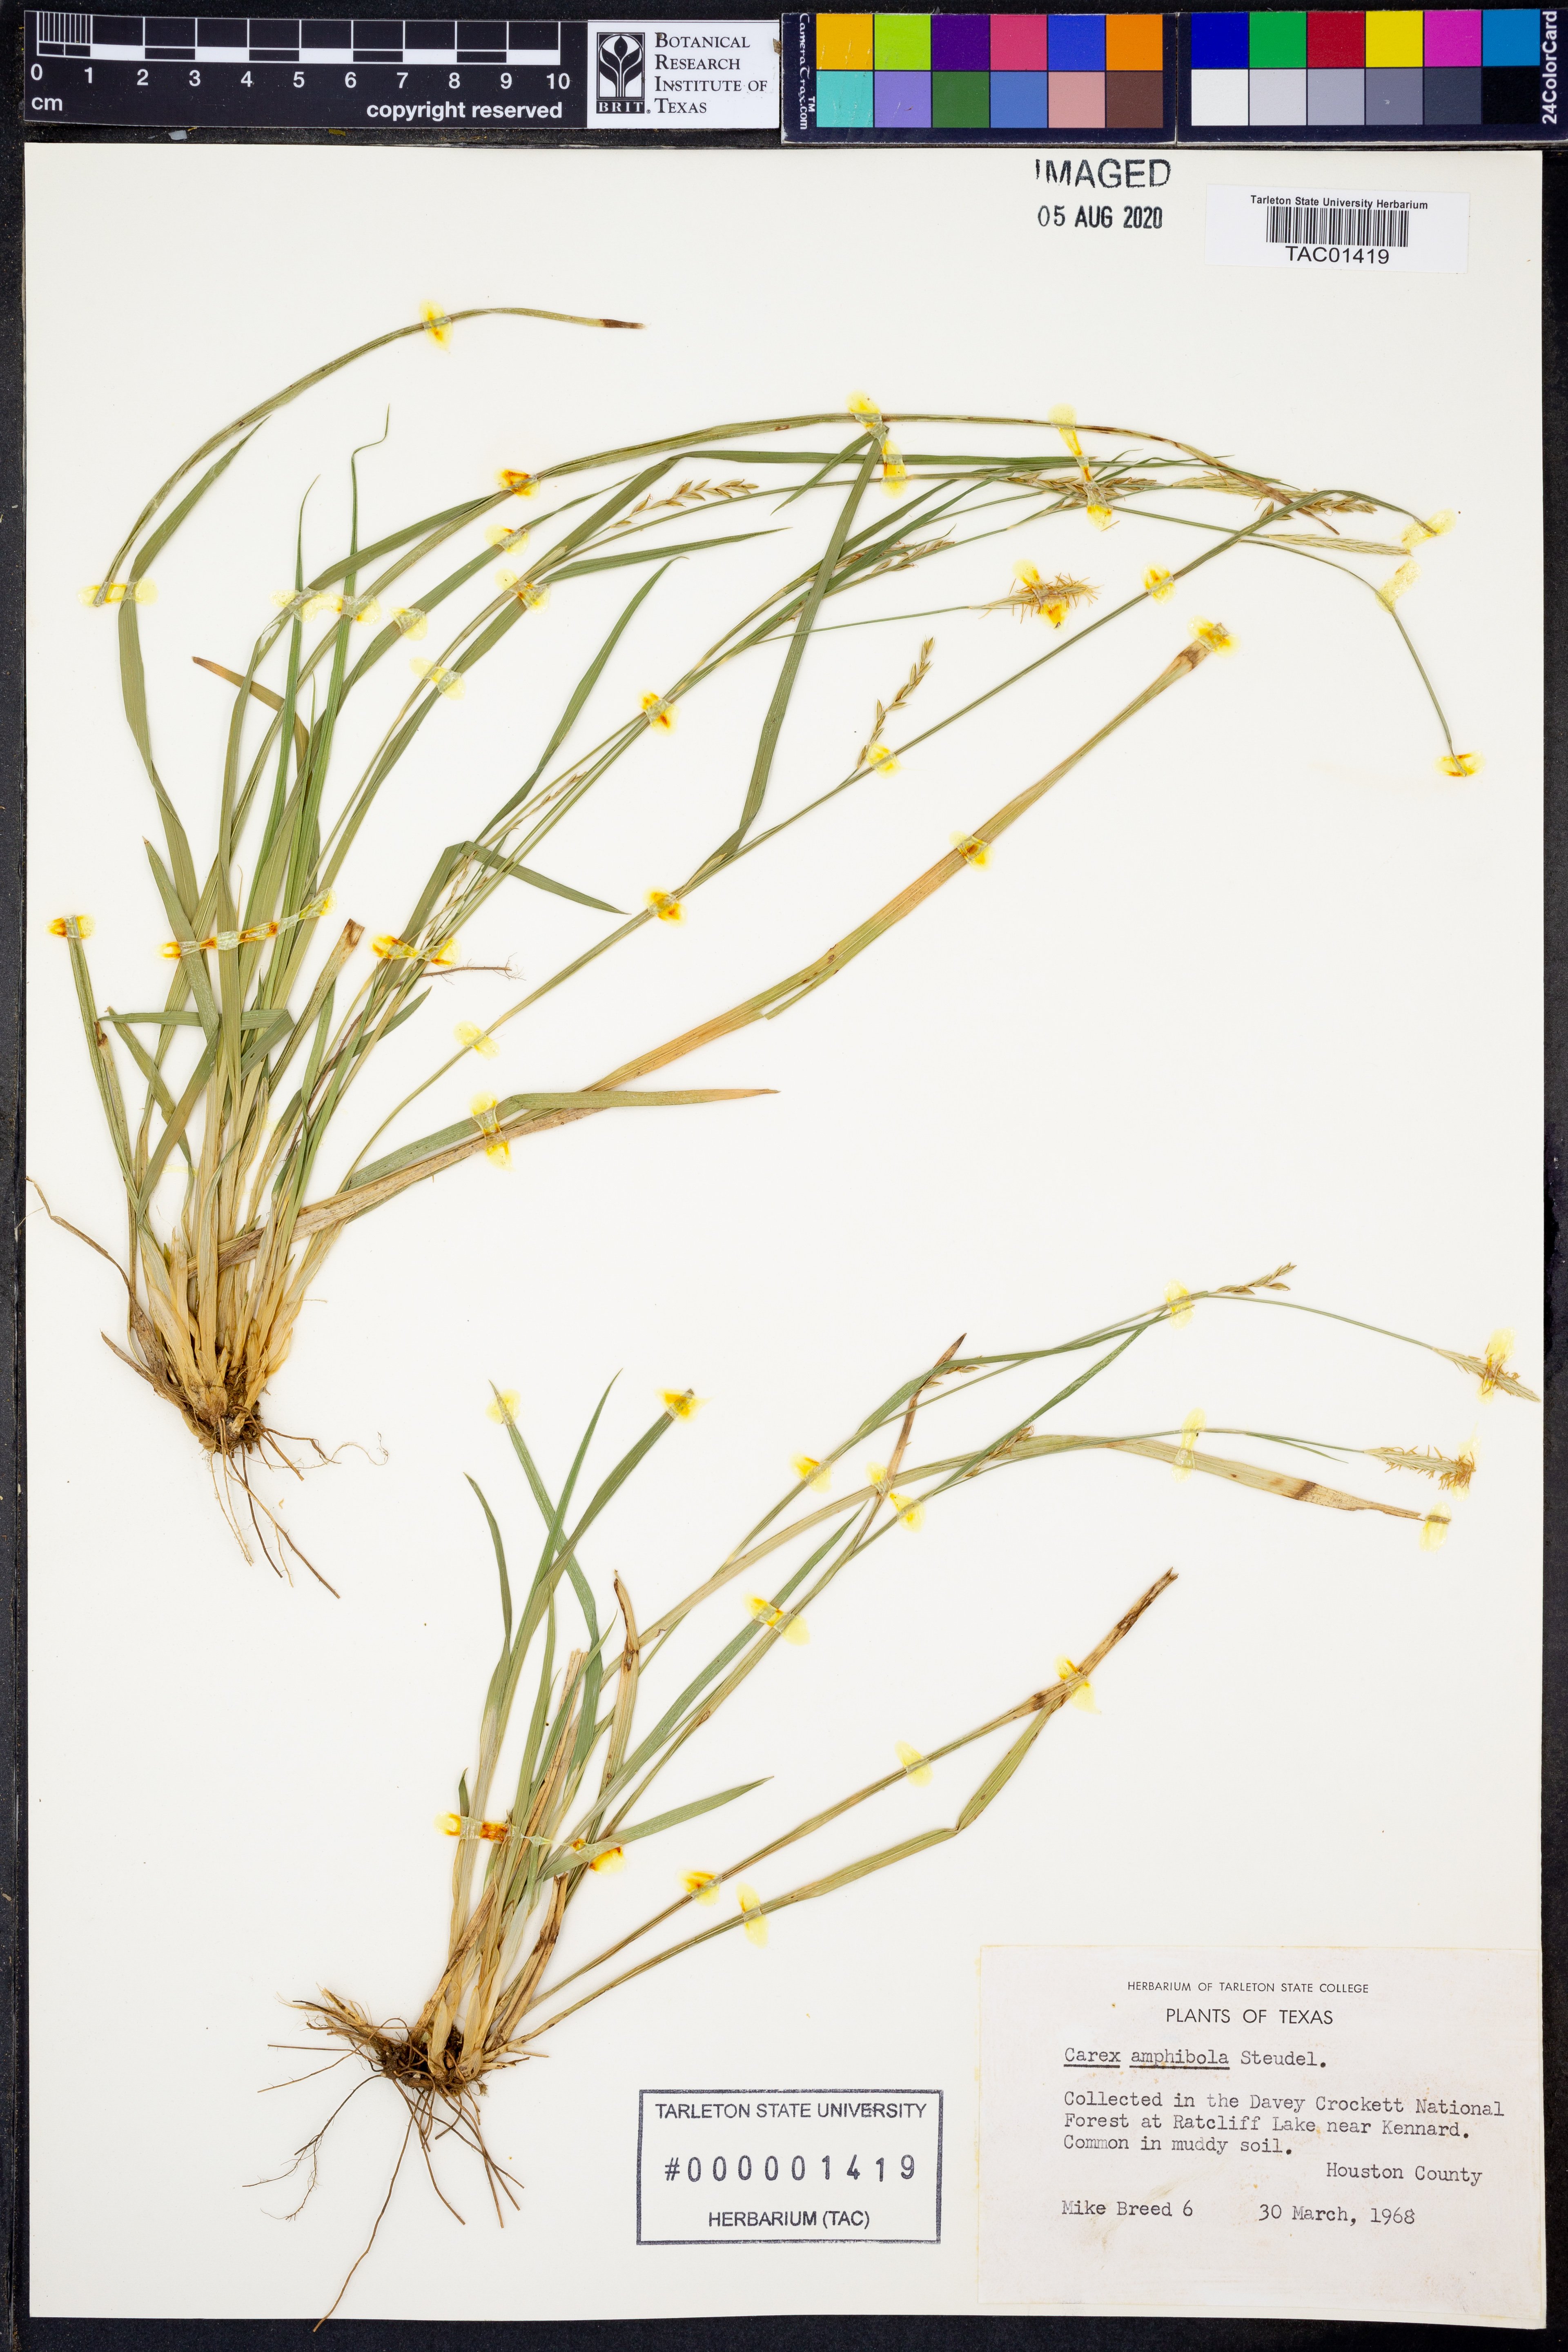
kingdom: Plantae
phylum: Tracheophyta
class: Liliopsida
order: Poales
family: Cyperaceae
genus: Carex
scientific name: Carex amphibola
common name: Amphibious sedge
